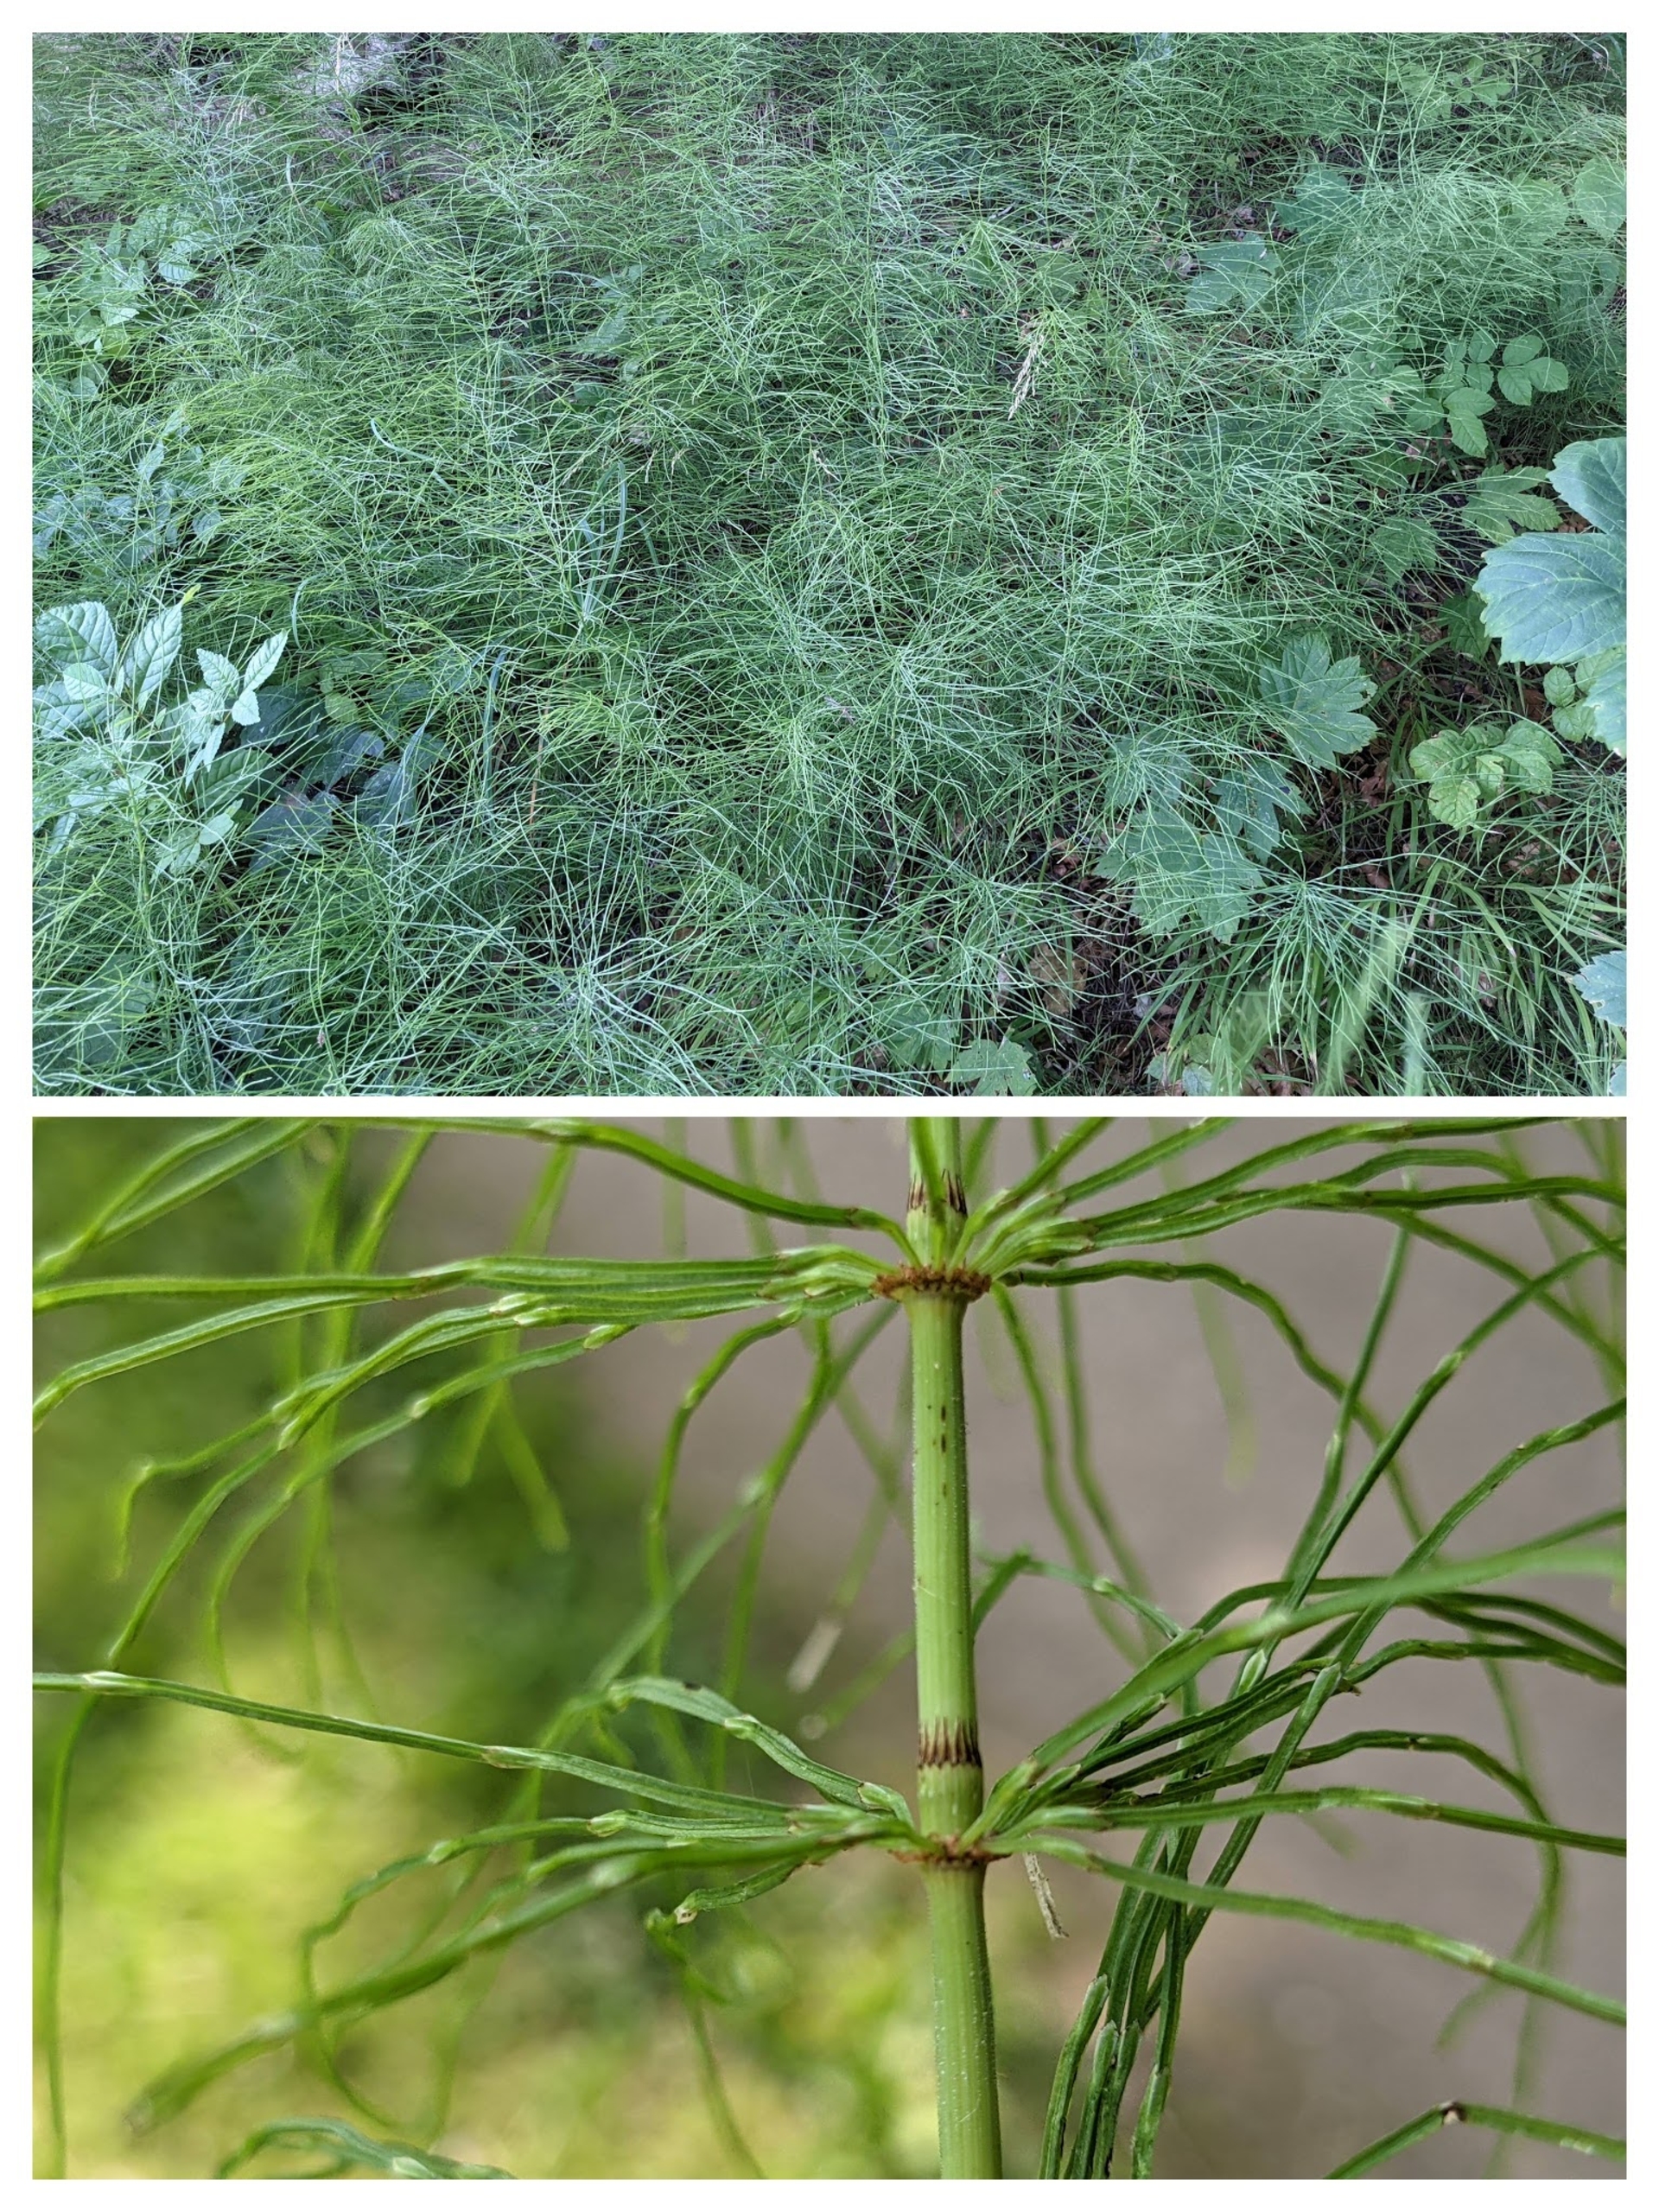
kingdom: Plantae
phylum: Tracheophyta
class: Polypodiopsida
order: Equisetales
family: Equisetaceae
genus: Equisetum
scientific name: Equisetum pratense
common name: Lund-padderok
